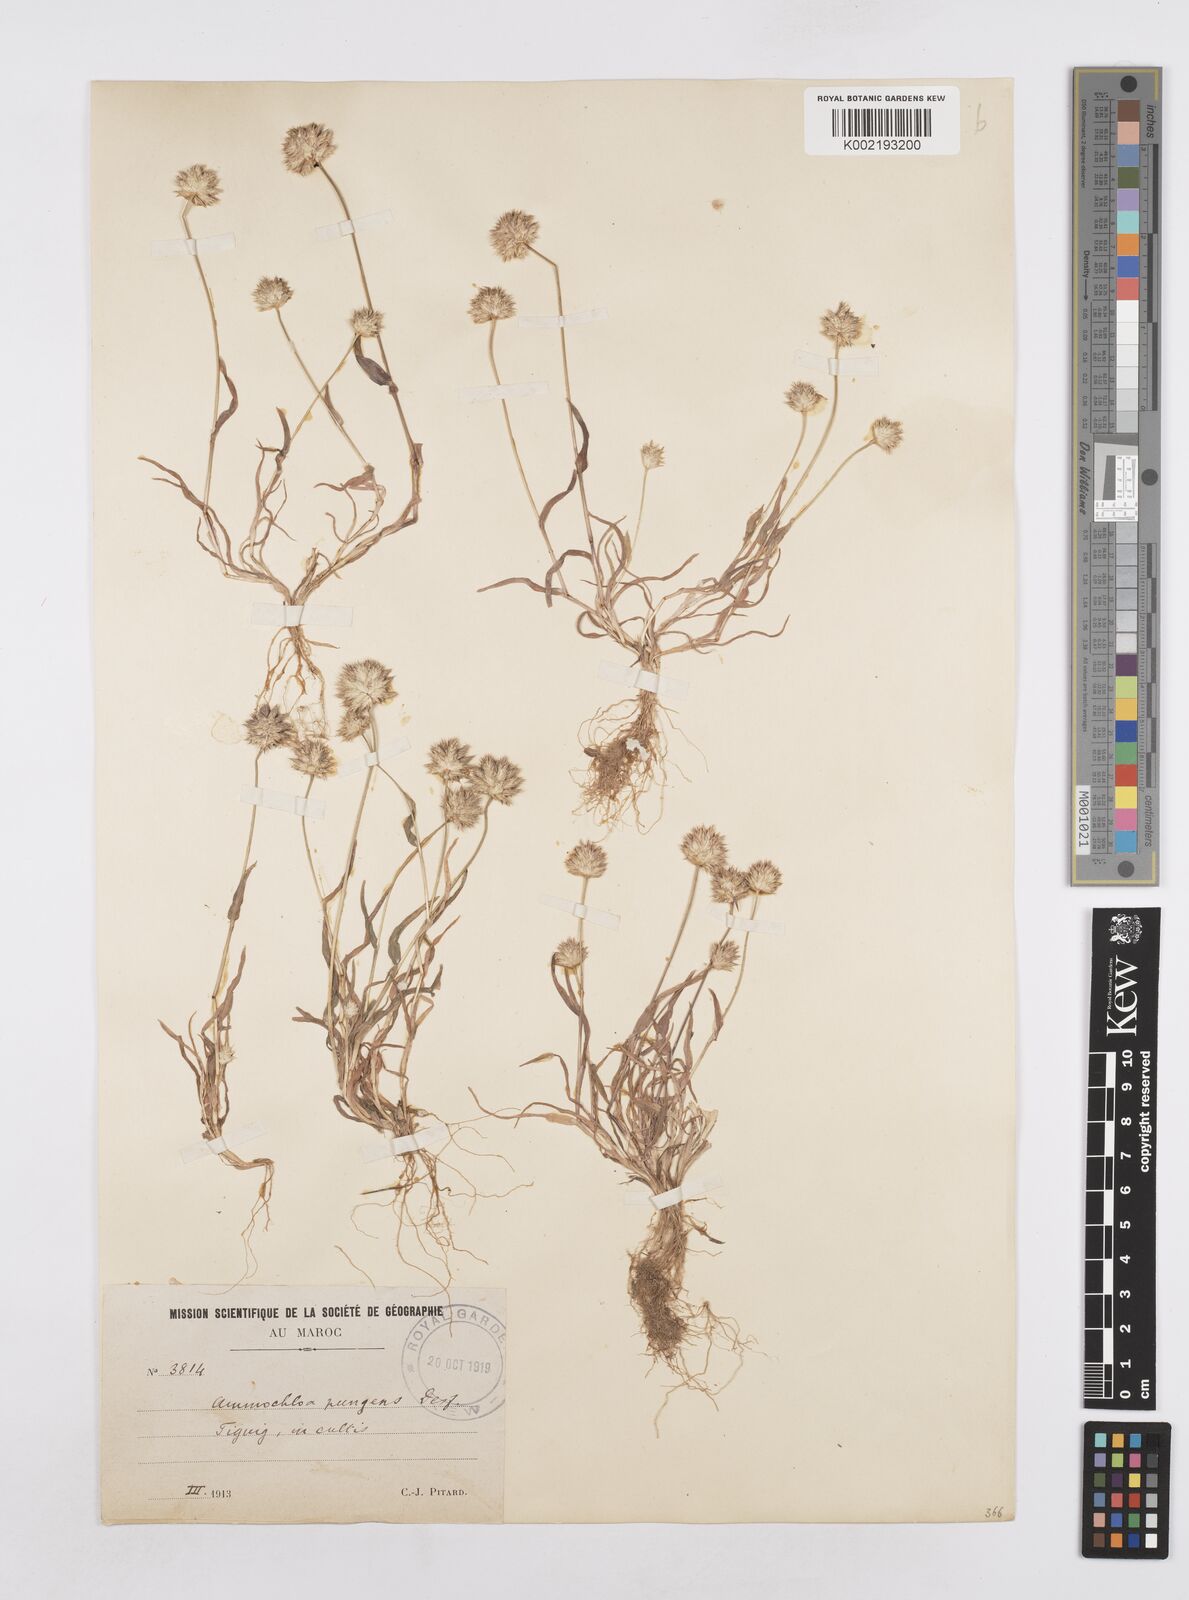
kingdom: Plantae
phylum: Tracheophyta
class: Liliopsida
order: Poales
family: Poaceae
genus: Ammochloa
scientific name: Ammochloa pungens
